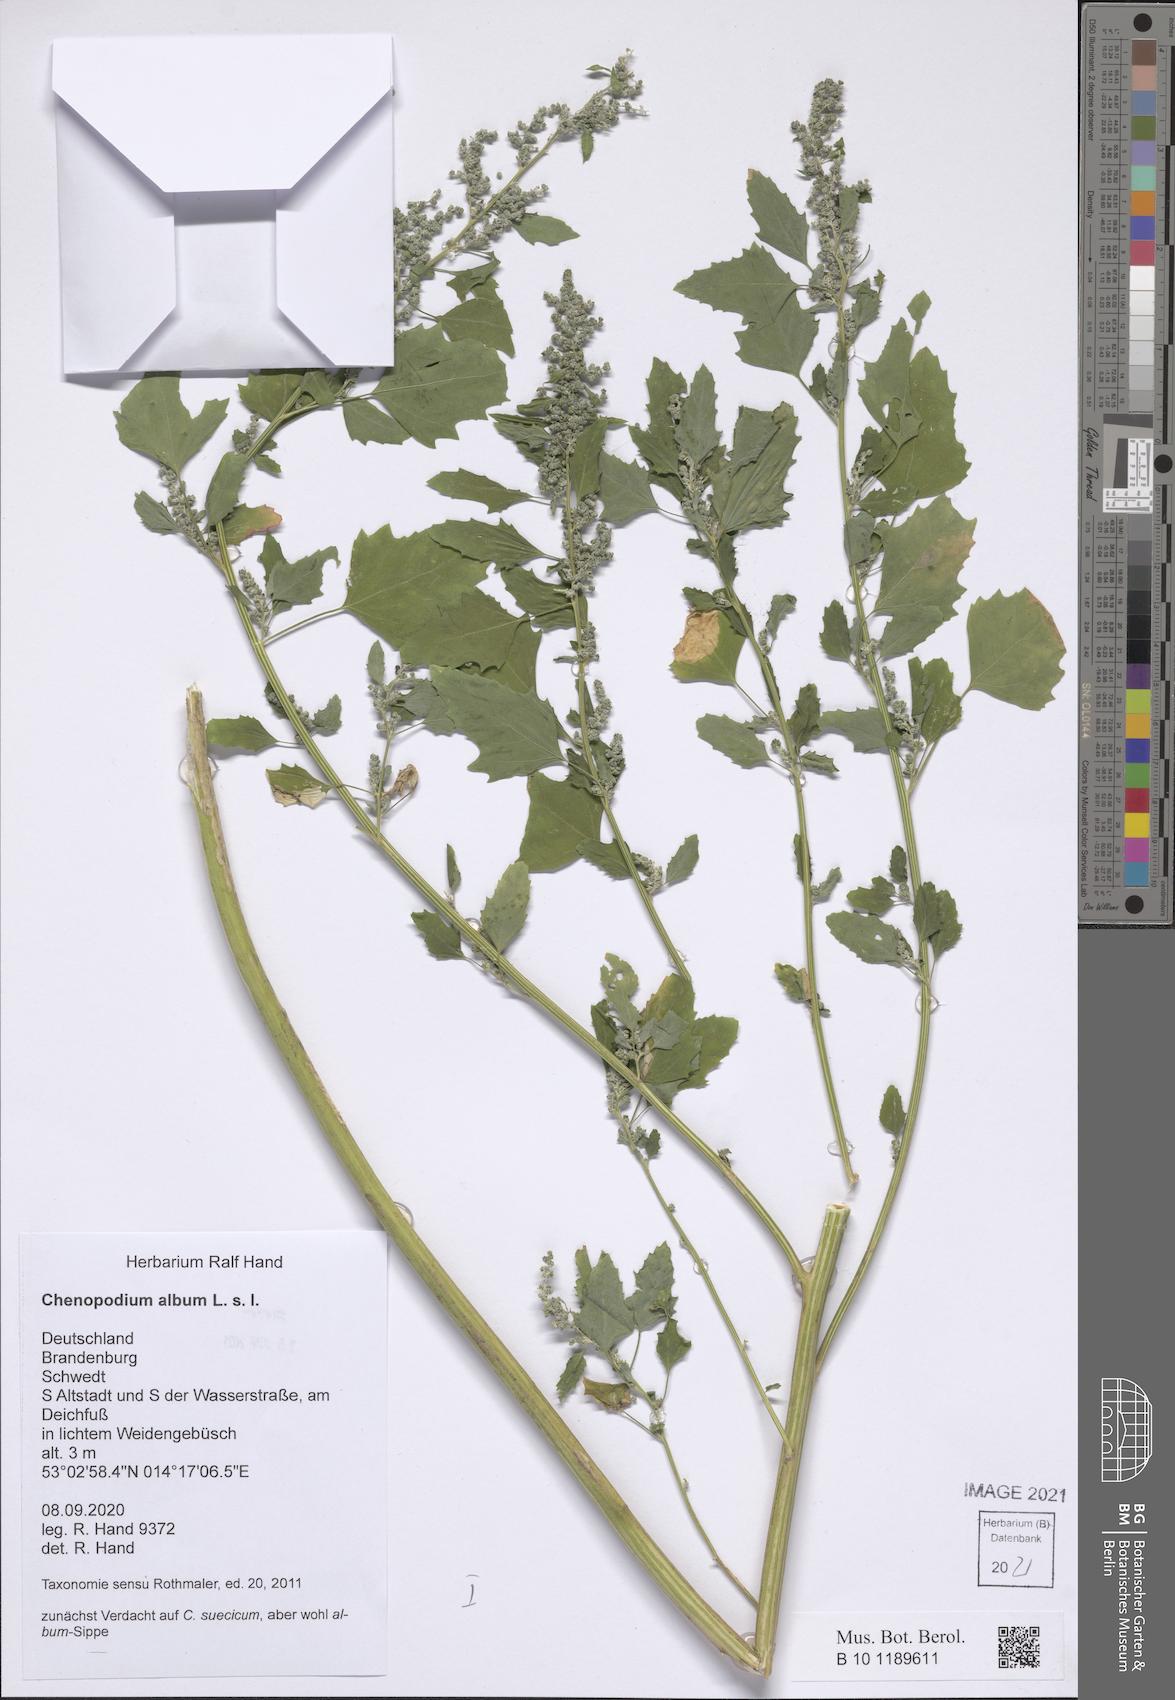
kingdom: Plantae
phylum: Tracheophyta
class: Magnoliopsida
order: Caryophyllales
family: Amaranthaceae
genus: Chenopodium
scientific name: Chenopodium album
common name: Fat-hen
